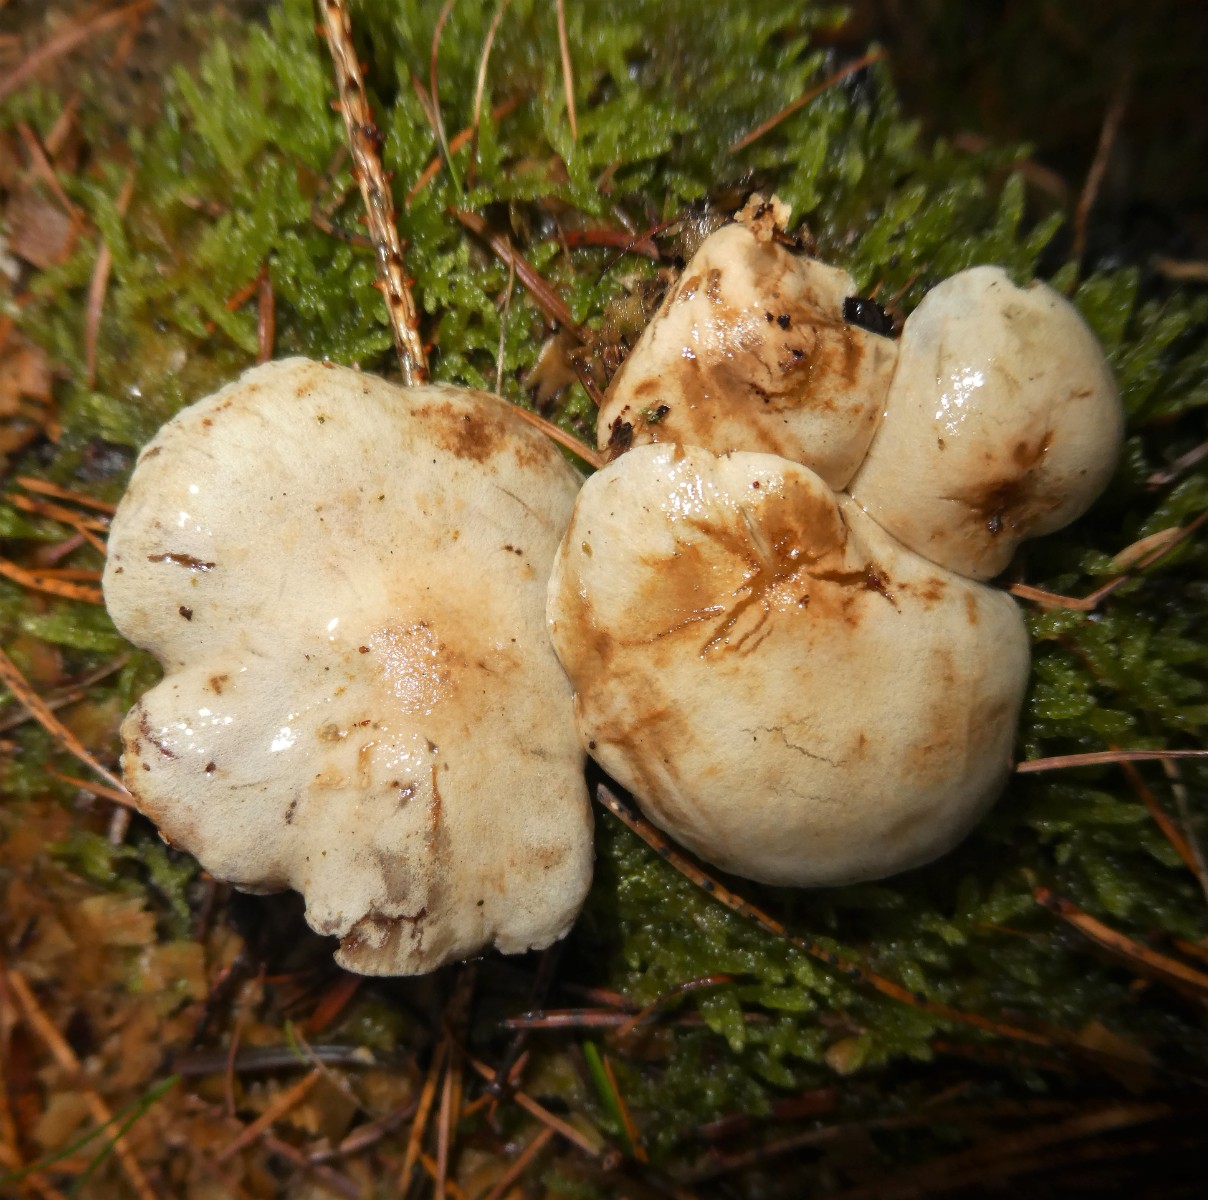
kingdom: Fungi
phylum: Basidiomycota
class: Agaricomycetes
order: Agaricales
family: Strophariaceae
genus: Pholiota
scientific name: Pholiota lenta
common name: løv-skælhat
